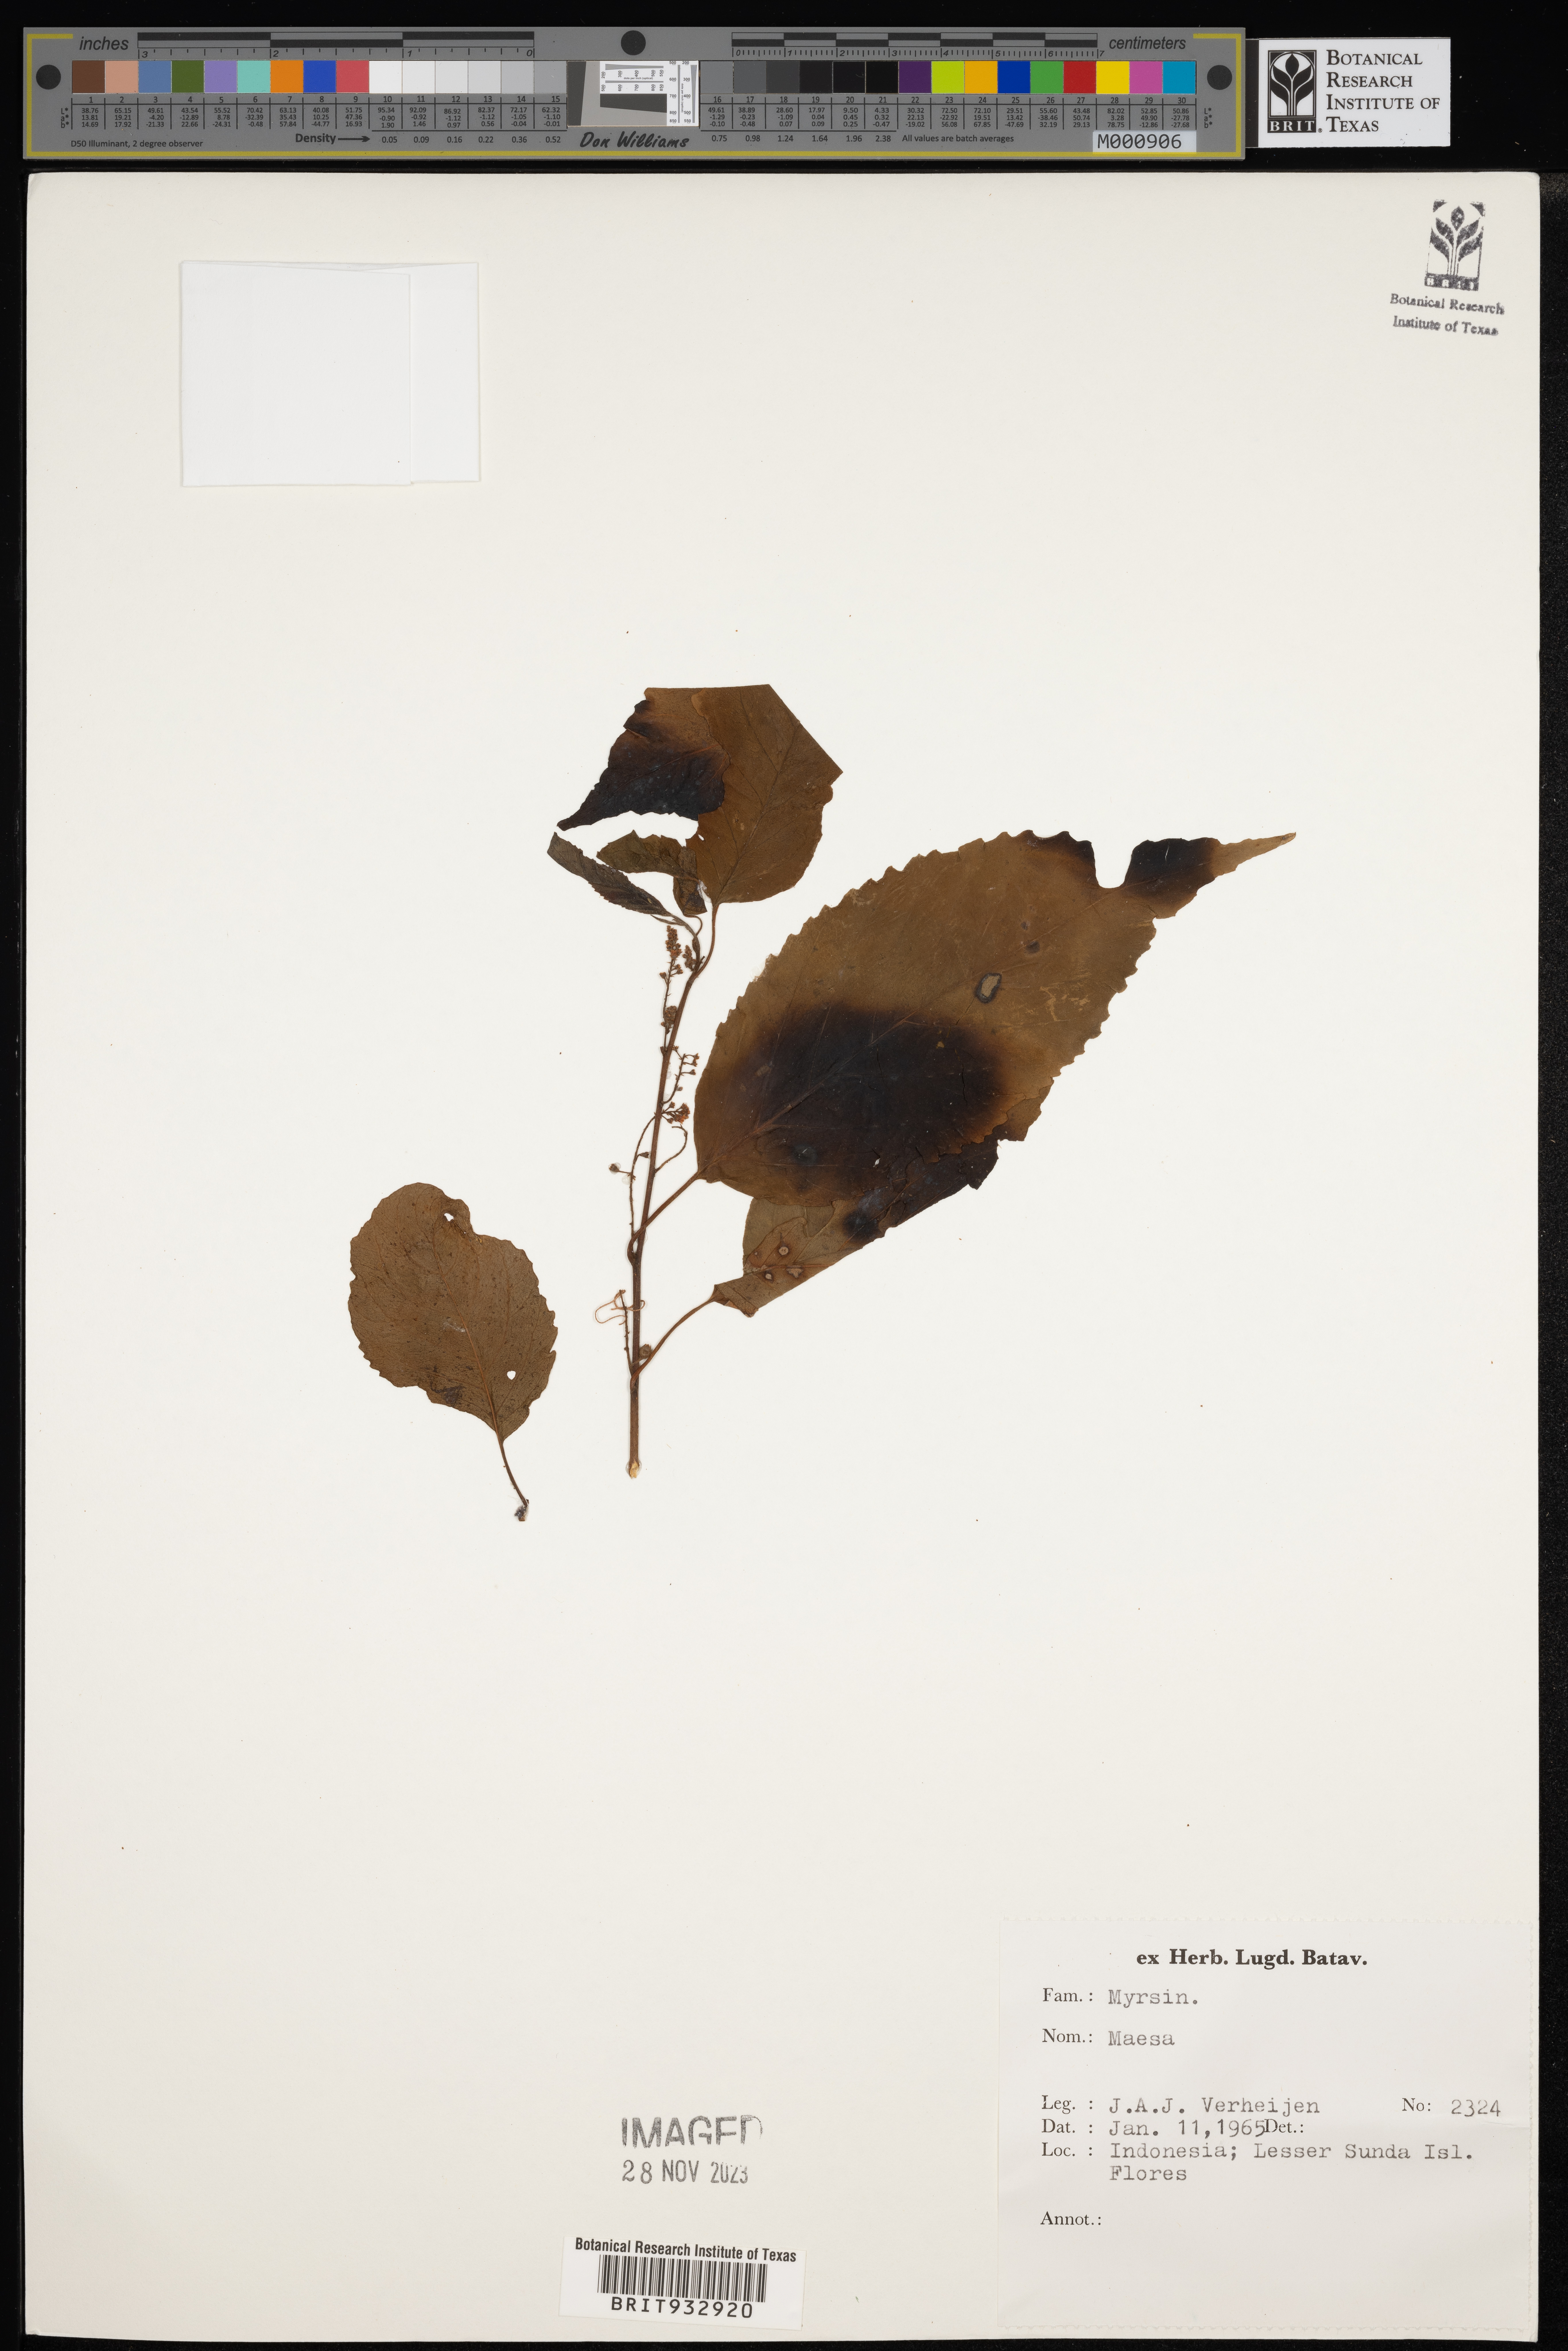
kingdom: Plantae
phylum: Tracheophyta
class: Magnoliopsida
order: Ericales
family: Primulaceae
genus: Maesa
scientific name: Maesa
